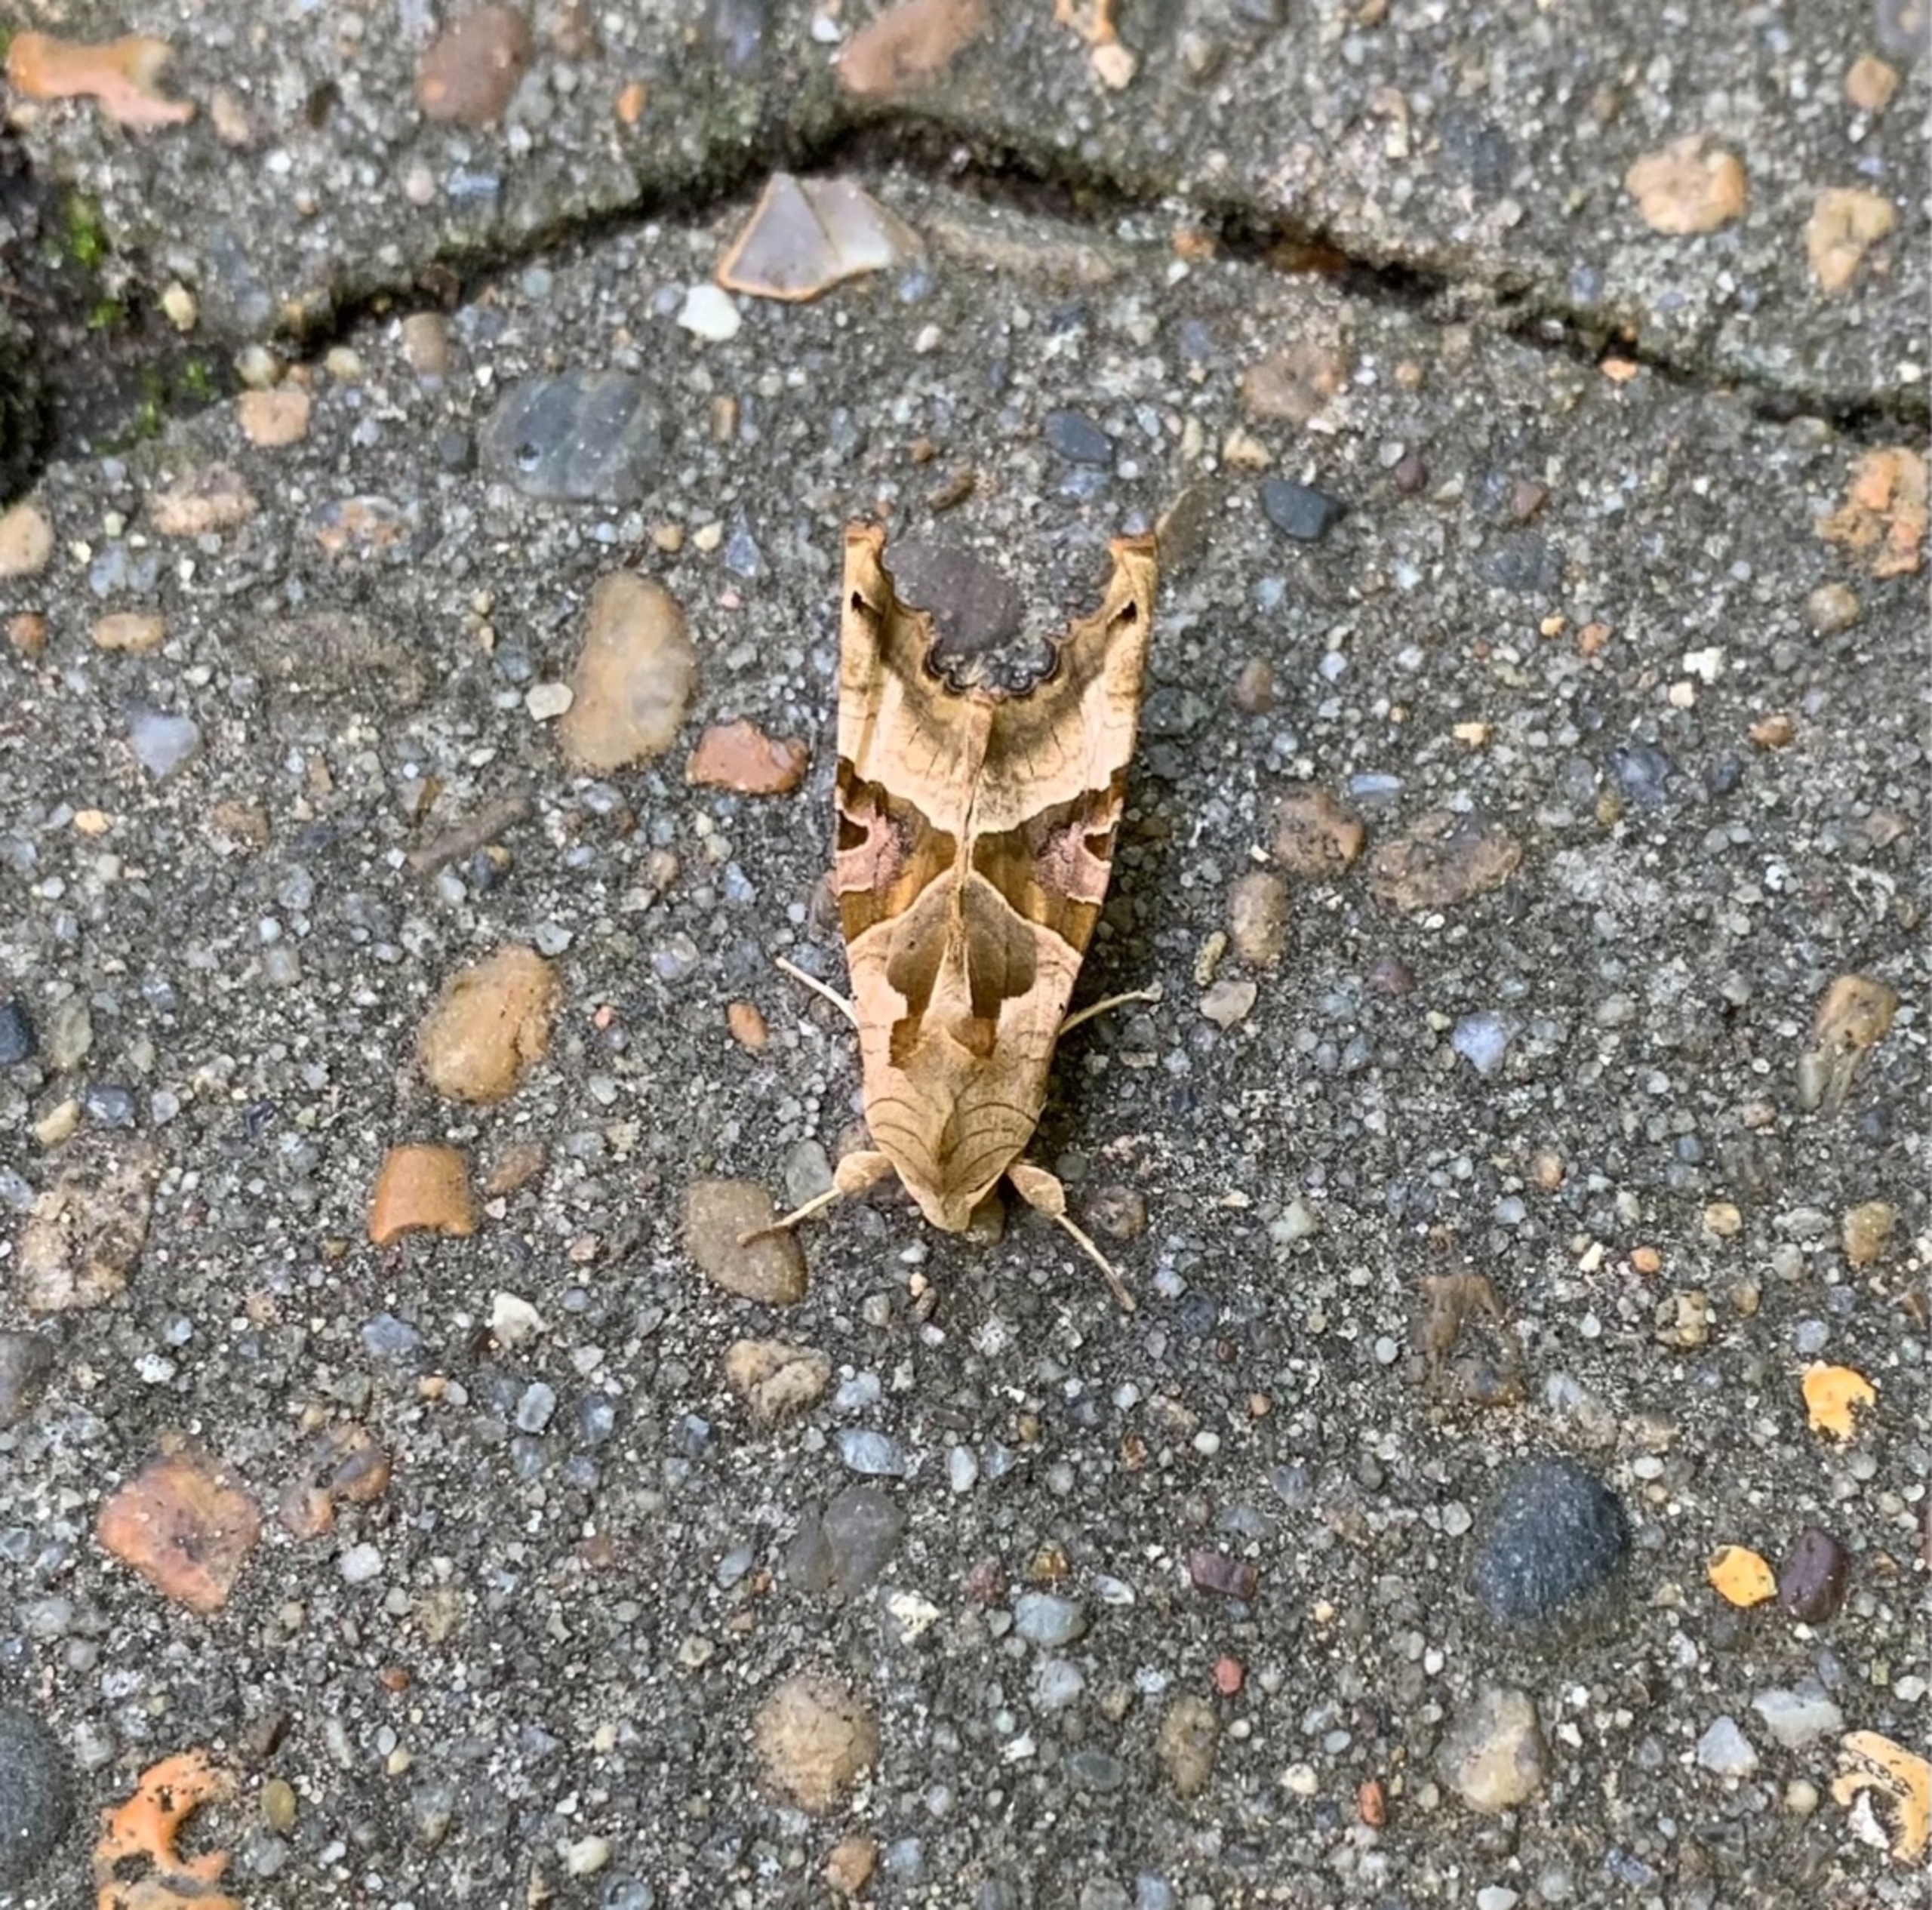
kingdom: Animalia
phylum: Arthropoda
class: Insecta
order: Lepidoptera
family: Noctuidae
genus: Phlogophora
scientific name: Phlogophora meticulosa
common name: Agatugle
